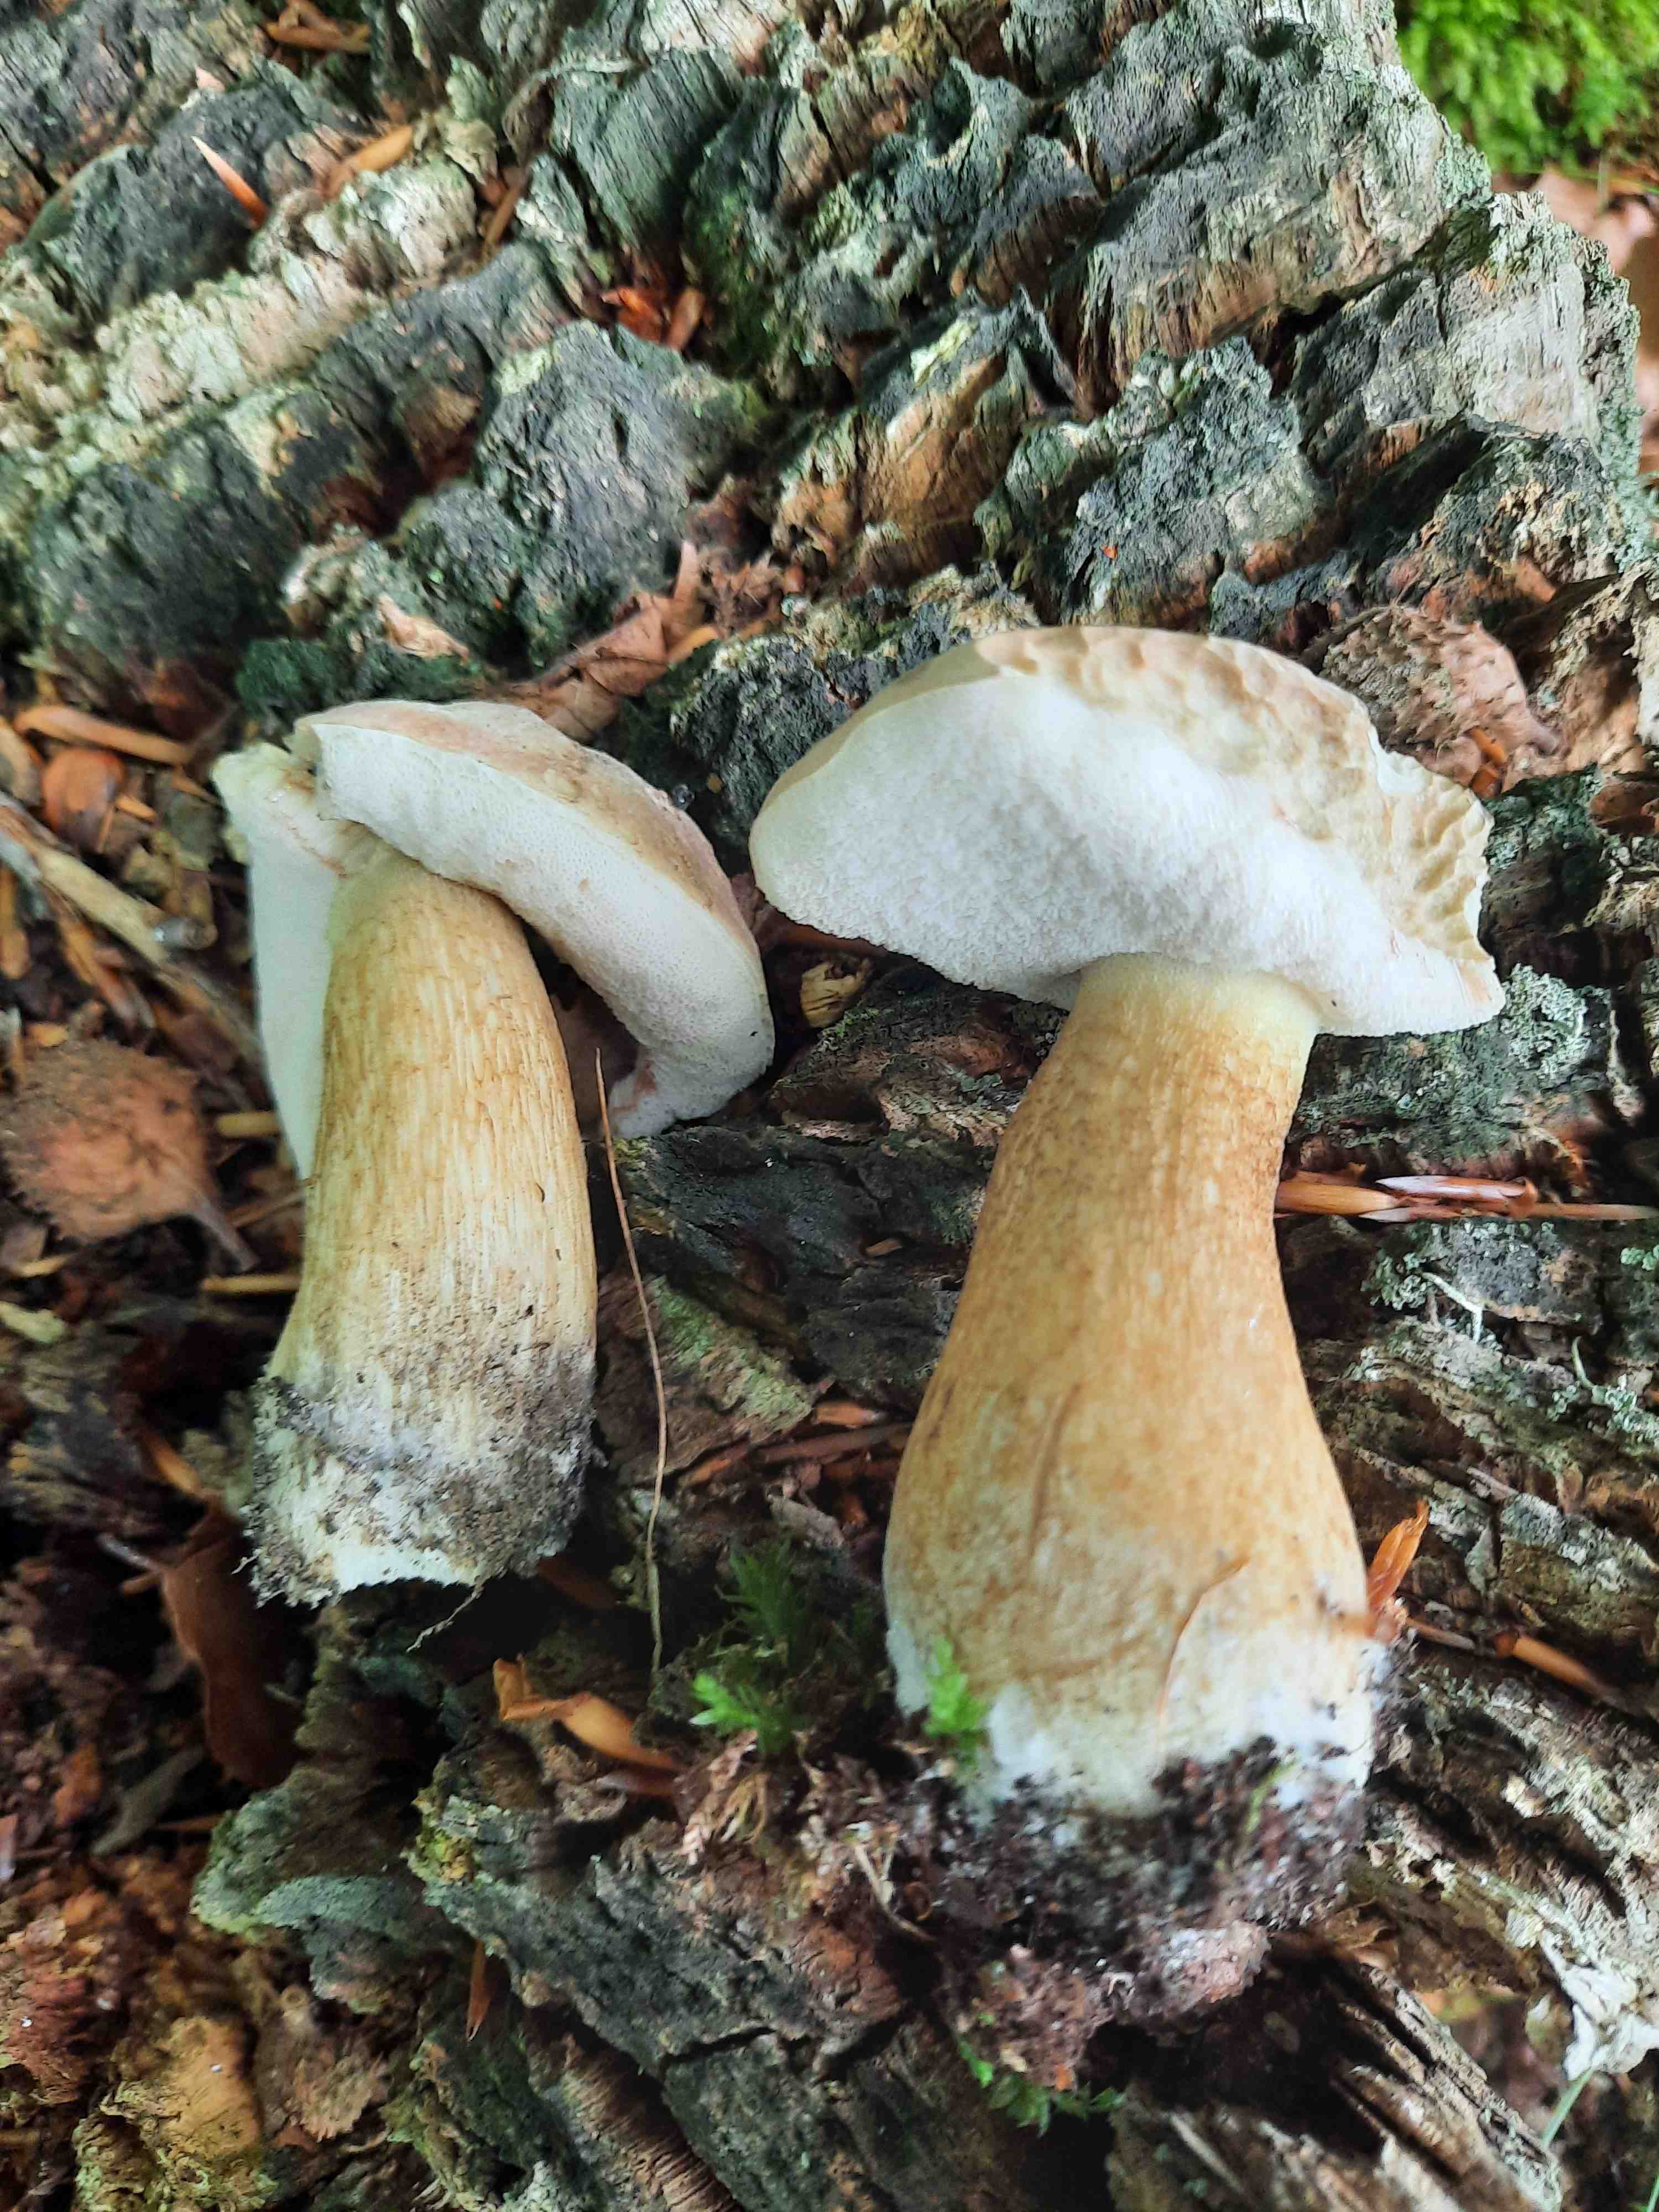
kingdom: Fungi
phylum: Basidiomycota
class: Agaricomycetes
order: Boletales
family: Boletaceae
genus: Tylopilus
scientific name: Tylopilus felleus
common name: galderørhat
